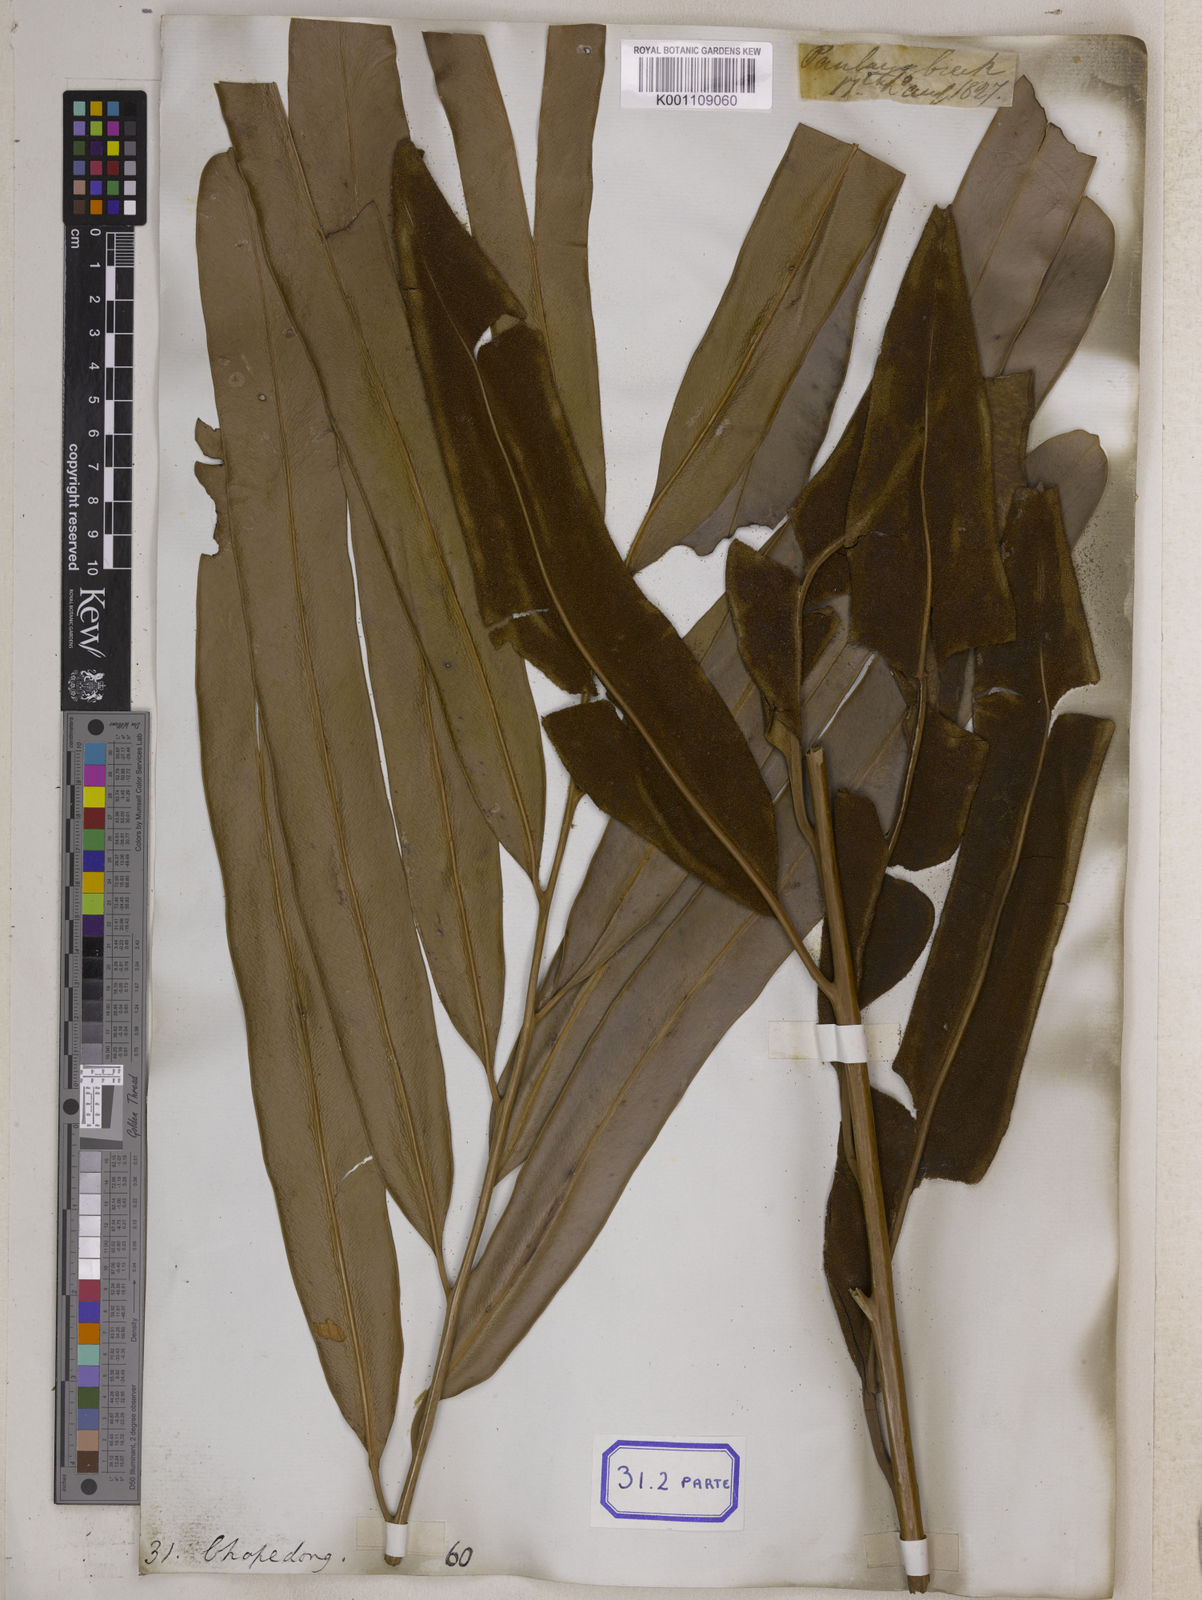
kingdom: Plantae
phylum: Tracheophyta
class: Polypodiopsida
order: Polypodiales
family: Pteridaceae
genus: Acrostichum
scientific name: Acrostichum aureum
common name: Leather fern
